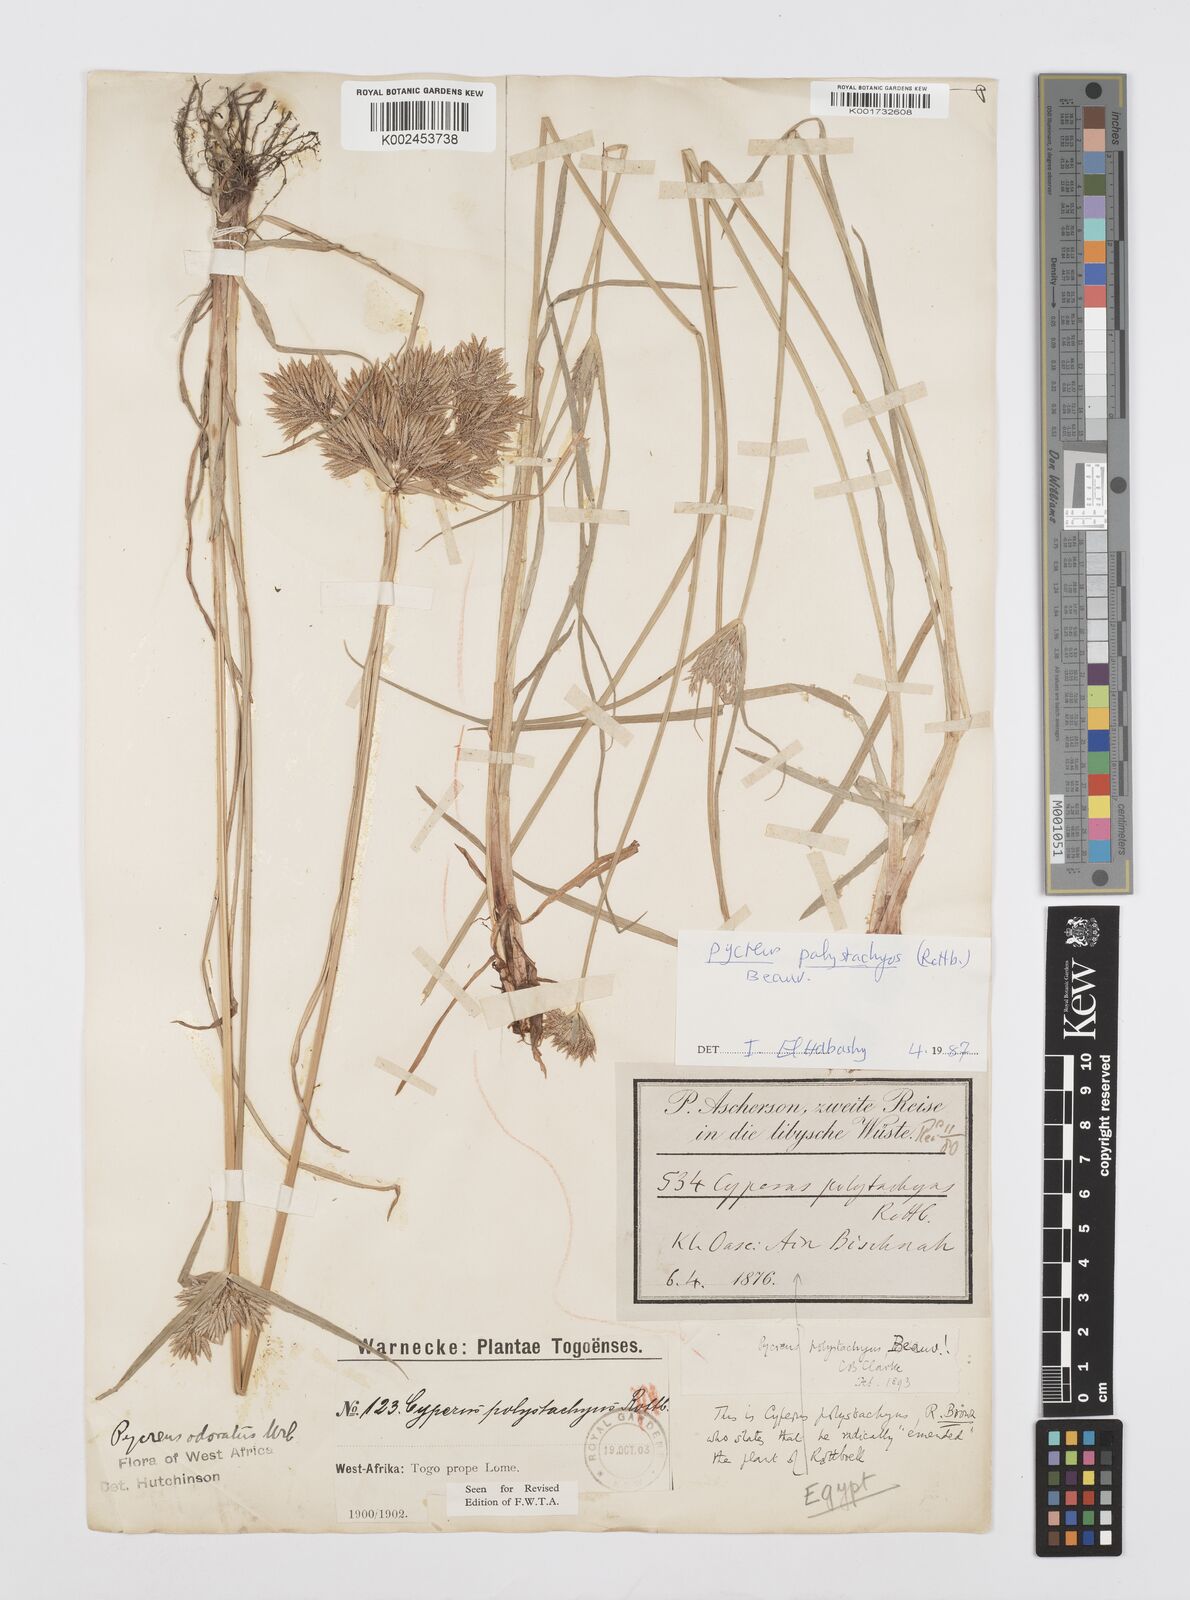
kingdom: Plantae
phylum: Tracheophyta
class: Liliopsida
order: Poales
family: Cyperaceae
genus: Cyperus
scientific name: Cyperus polystachyos
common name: Bunchy flat sedge
